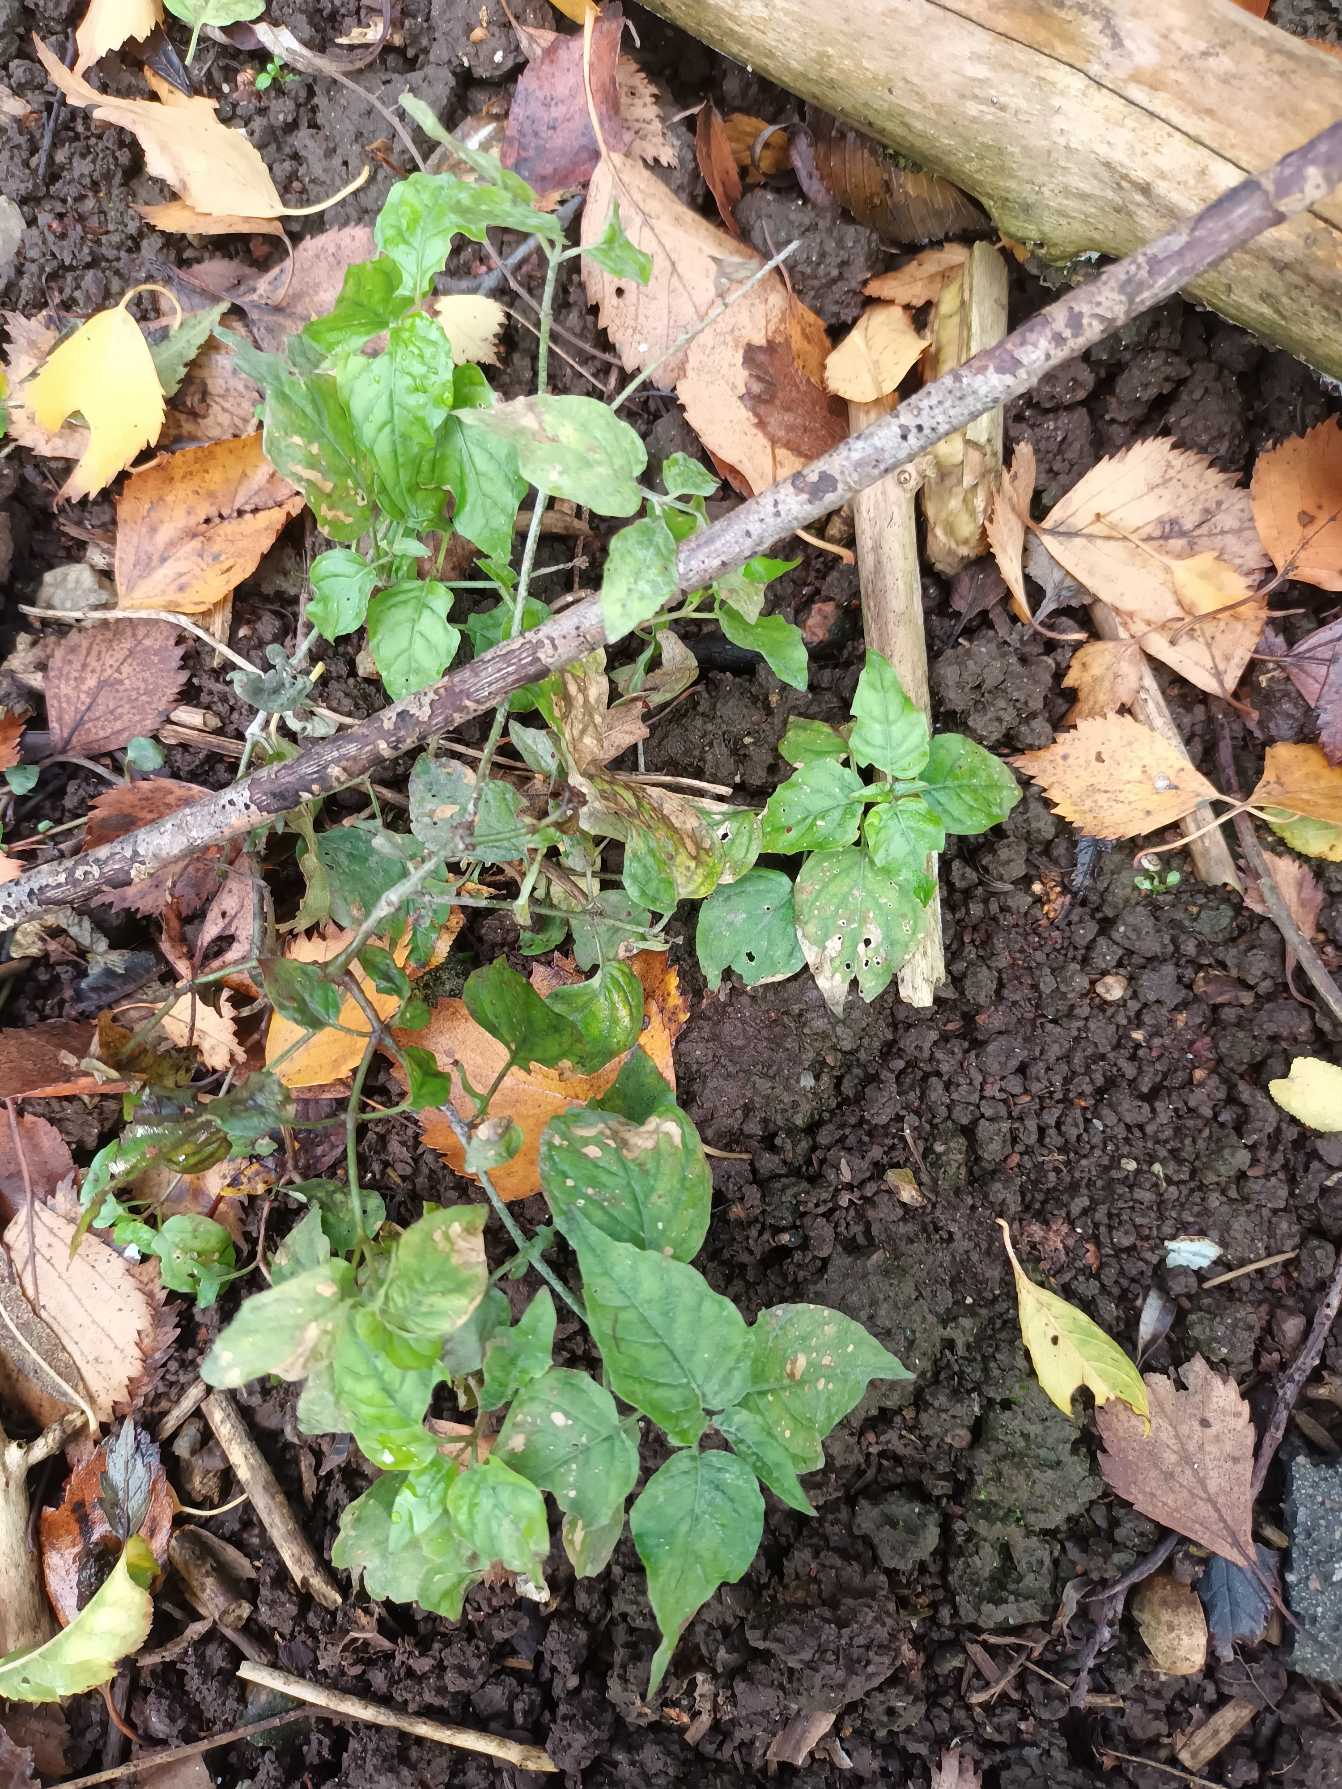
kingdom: Plantae
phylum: Tracheophyta
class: Magnoliopsida
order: Myrtales
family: Onagraceae
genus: Circaea
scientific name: Circaea lutetiana
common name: Dunet steffensurt
